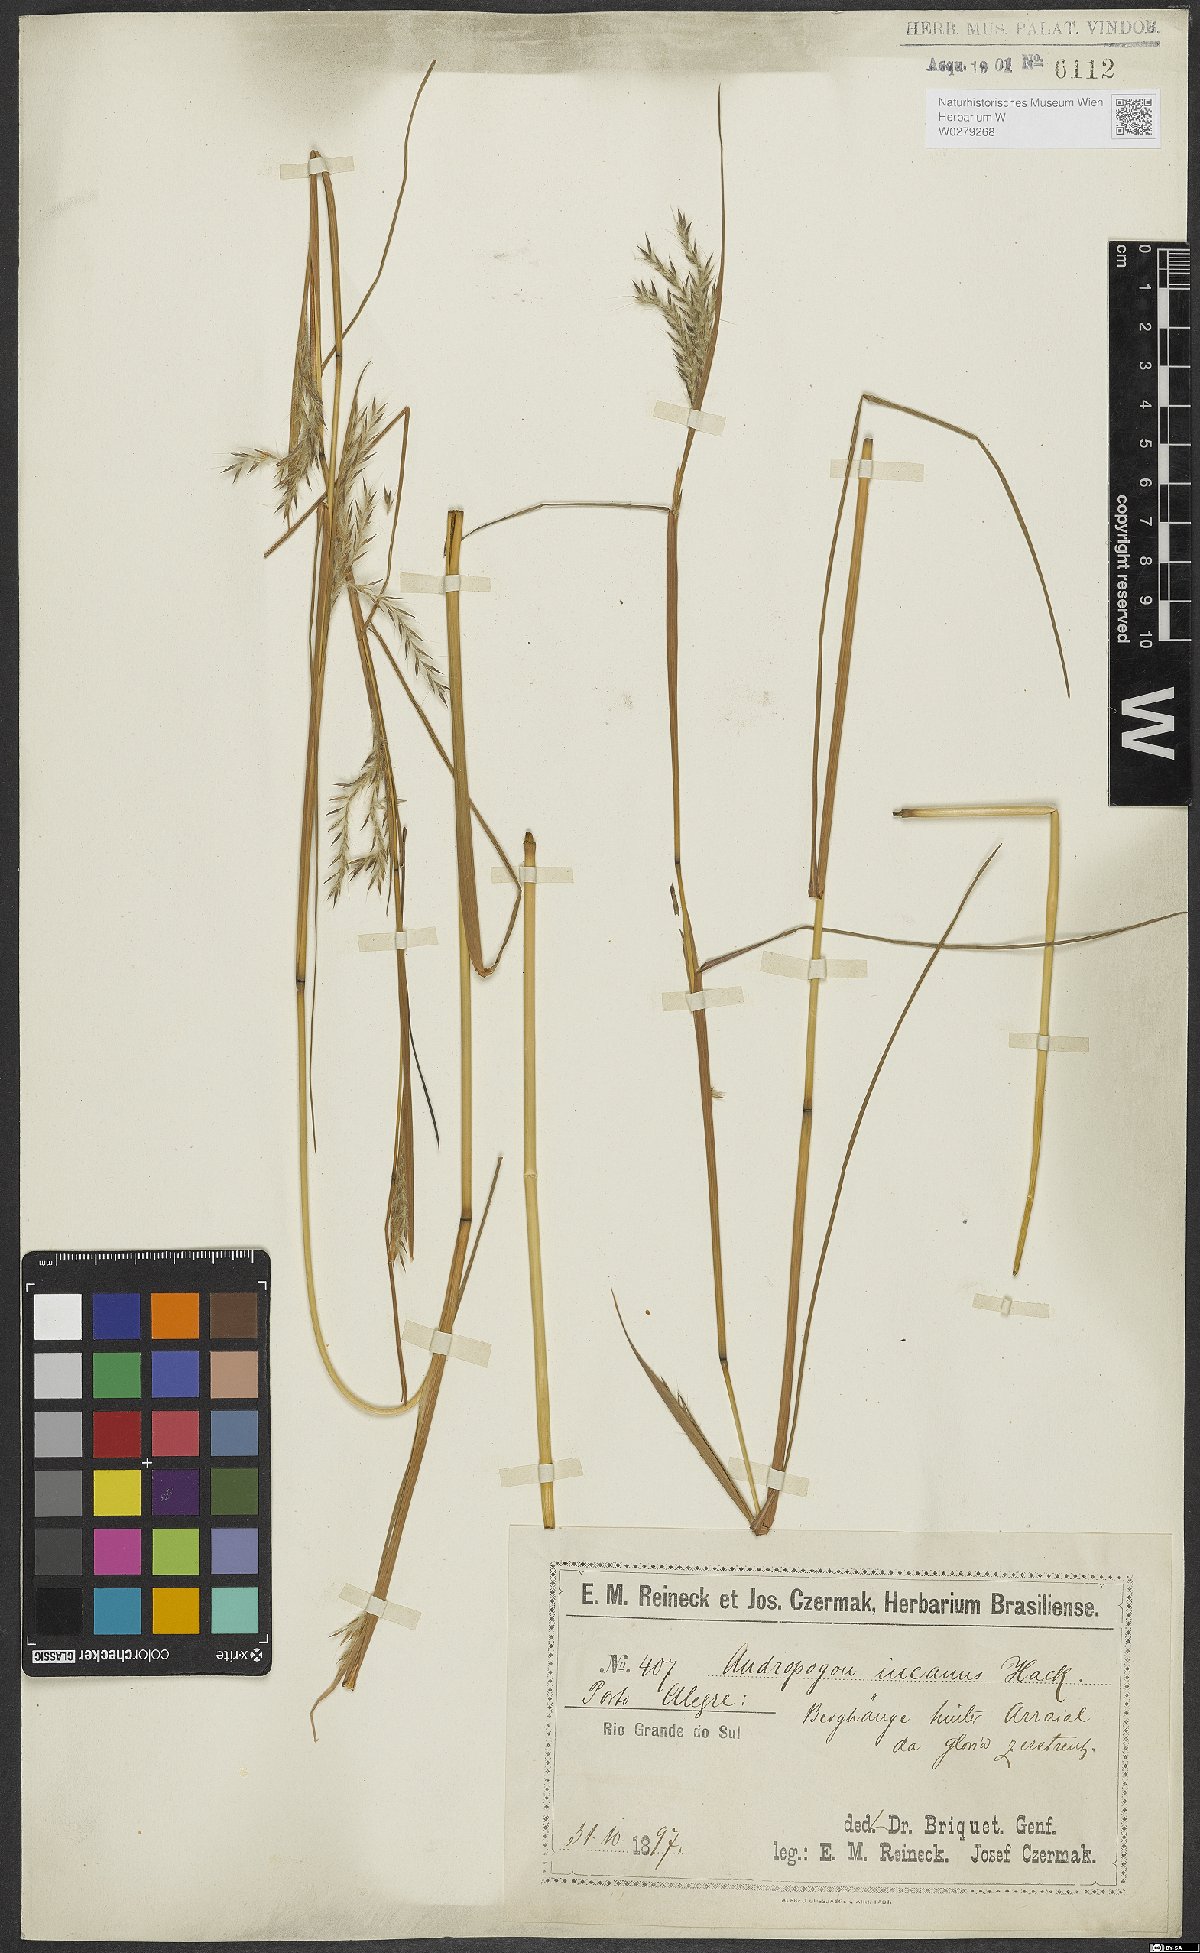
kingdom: Plantae
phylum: Tracheophyta
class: Liliopsida
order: Poales
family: Poaceae
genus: Andropogon
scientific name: Andropogon lateralis
